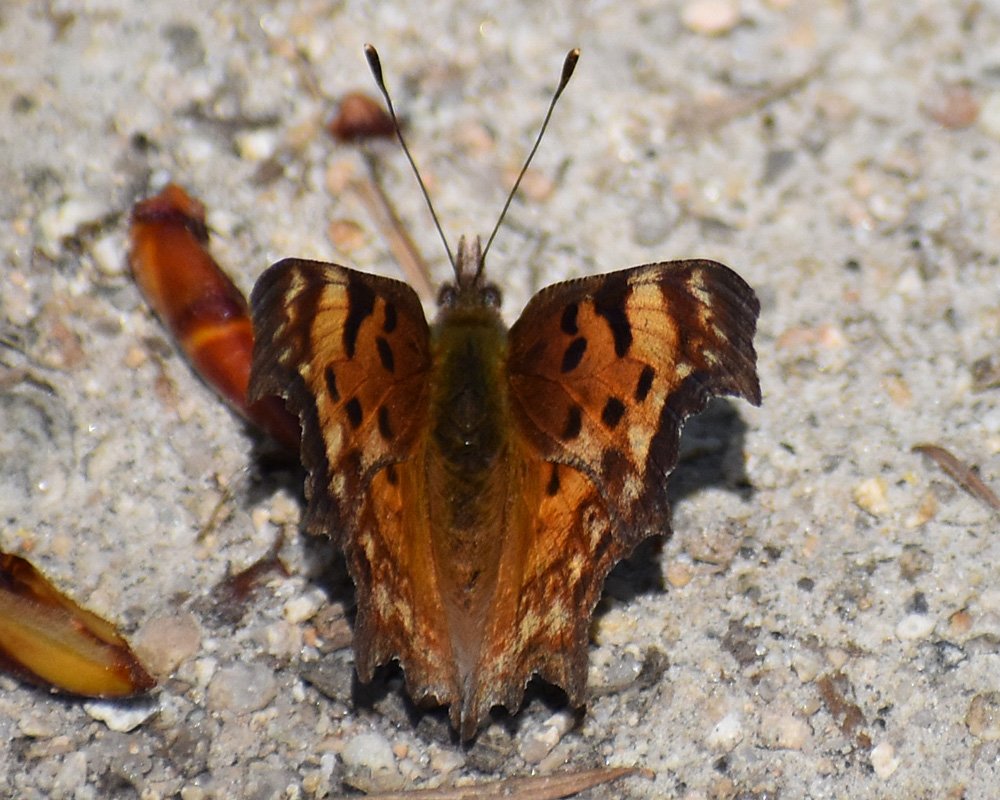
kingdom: Animalia
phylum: Arthropoda
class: Insecta
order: Lepidoptera
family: Nymphalidae
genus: Polygonia
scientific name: Polygonia gracilis
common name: Hoary Comma
